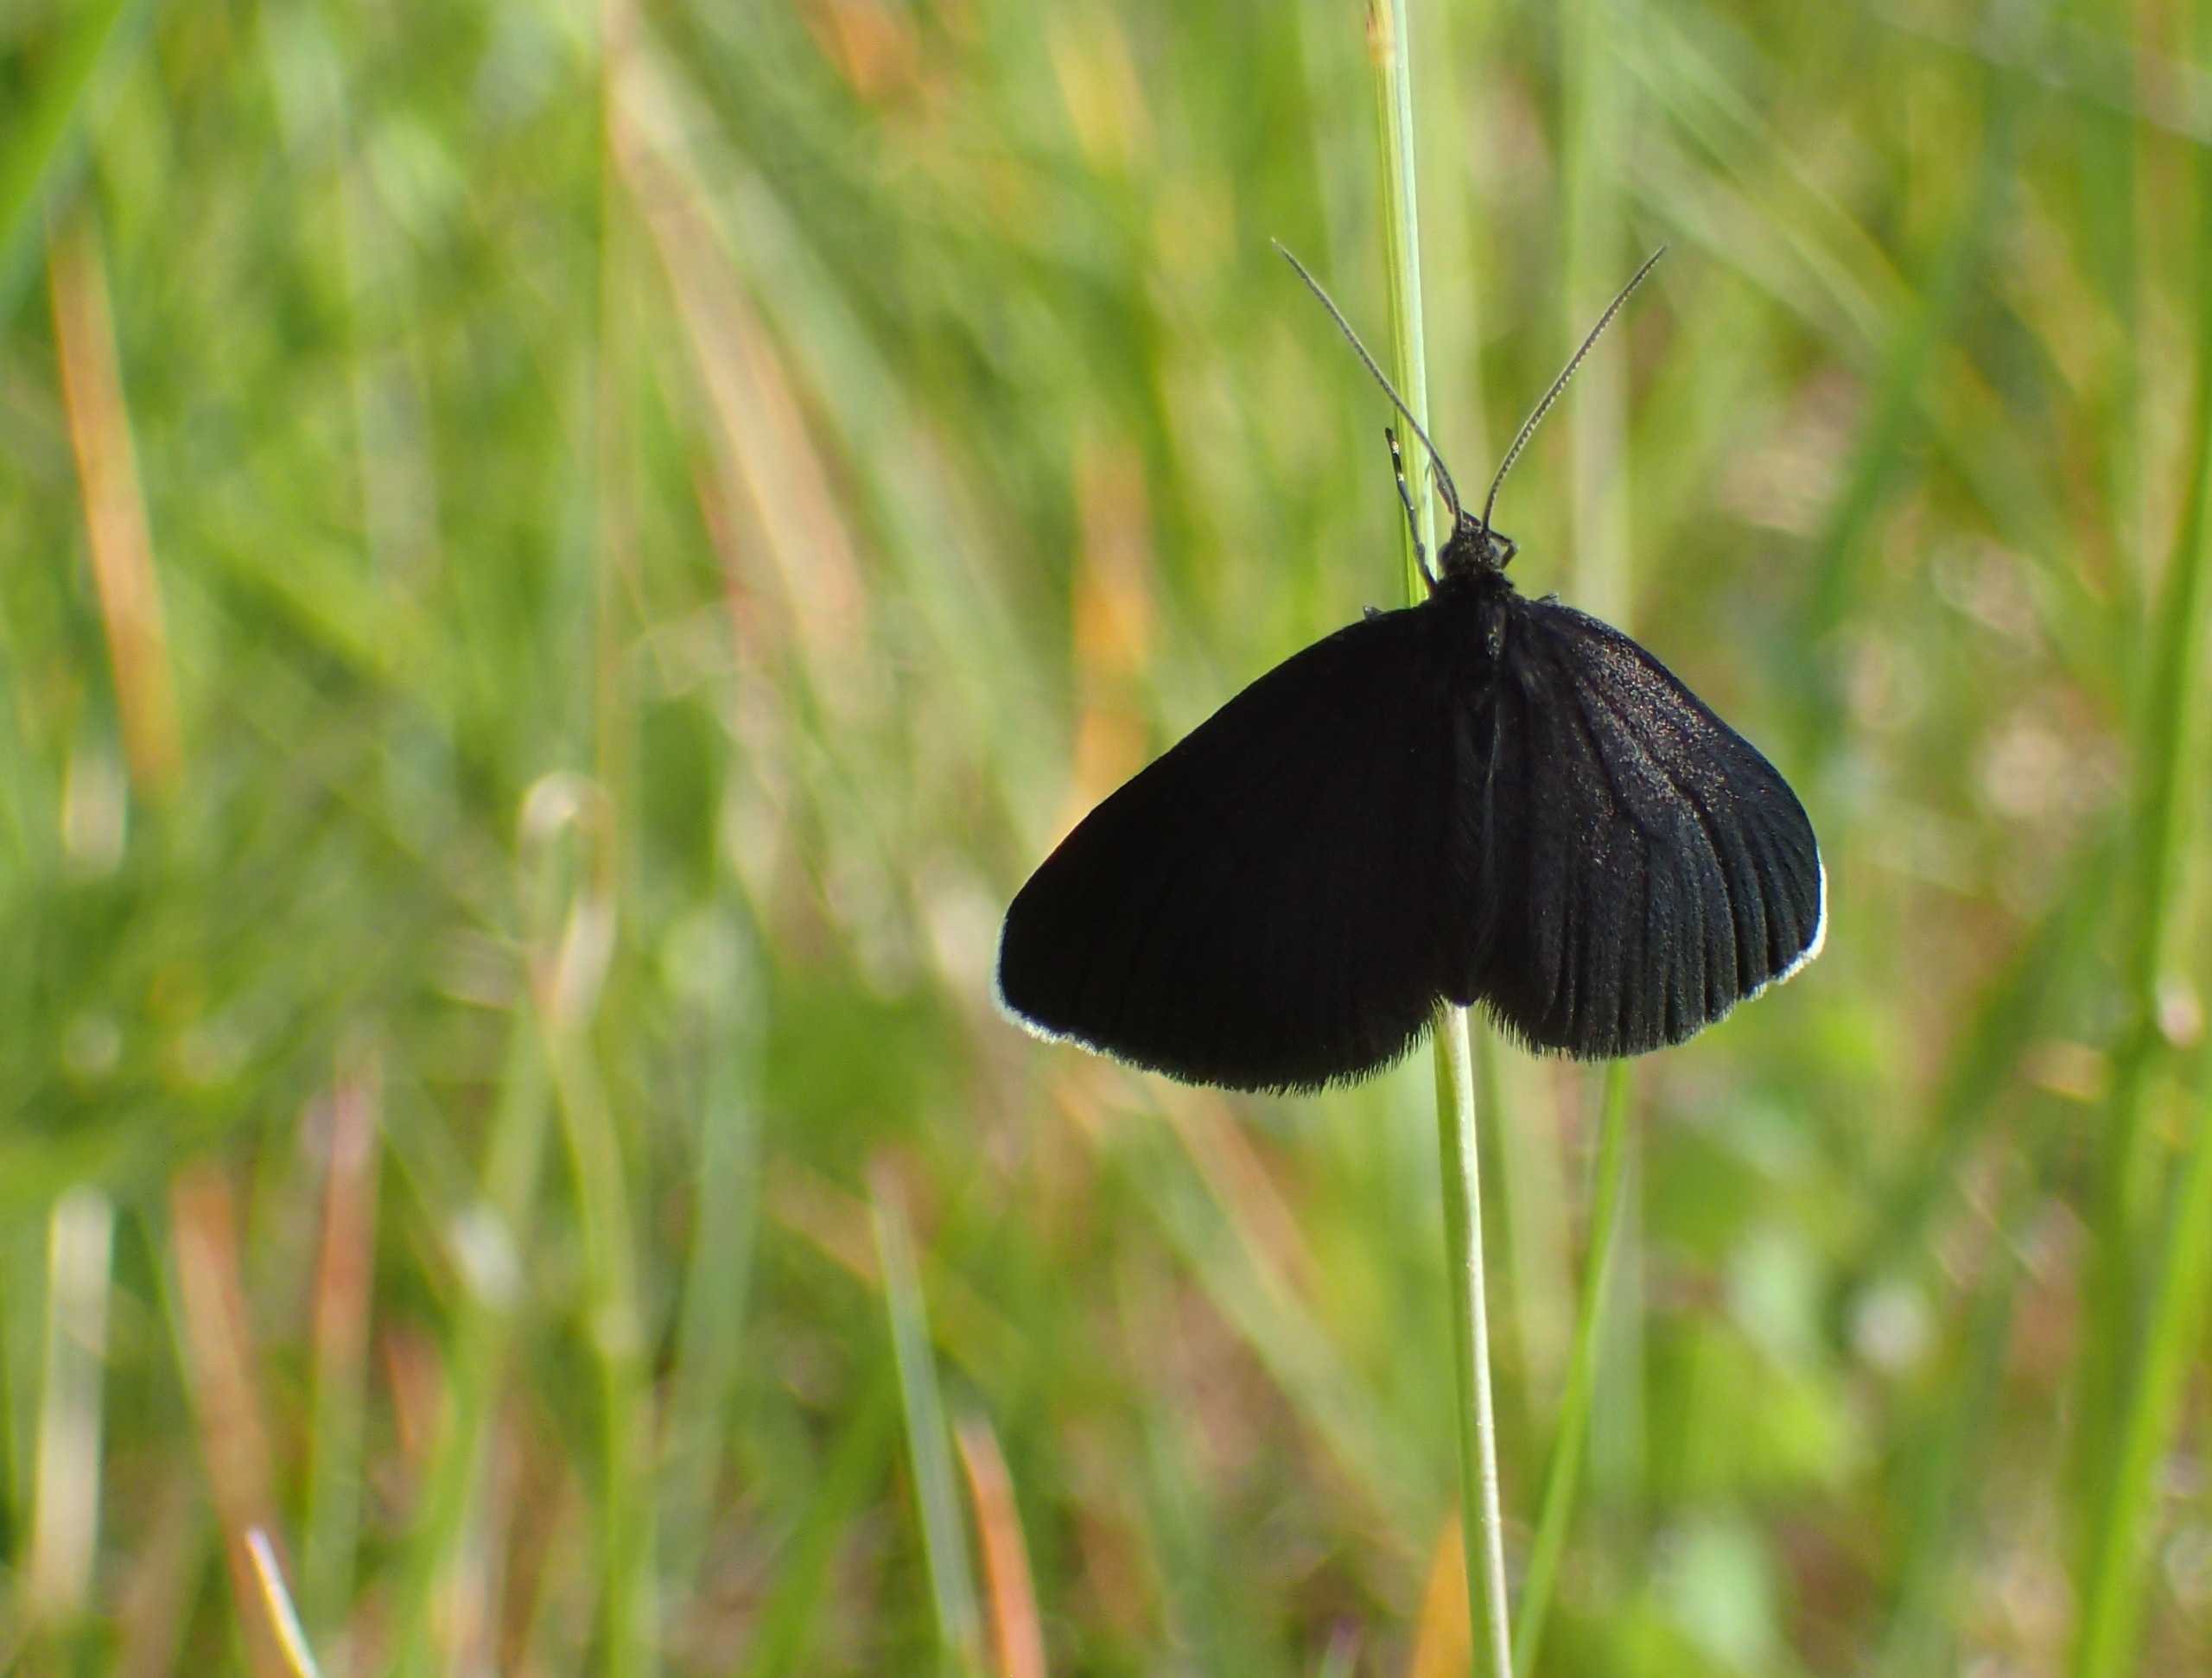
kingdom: Animalia
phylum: Arthropoda
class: Insecta
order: Lepidoptera
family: Geometridae
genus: Odezia
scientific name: Odezia atrata
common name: Sort måler
